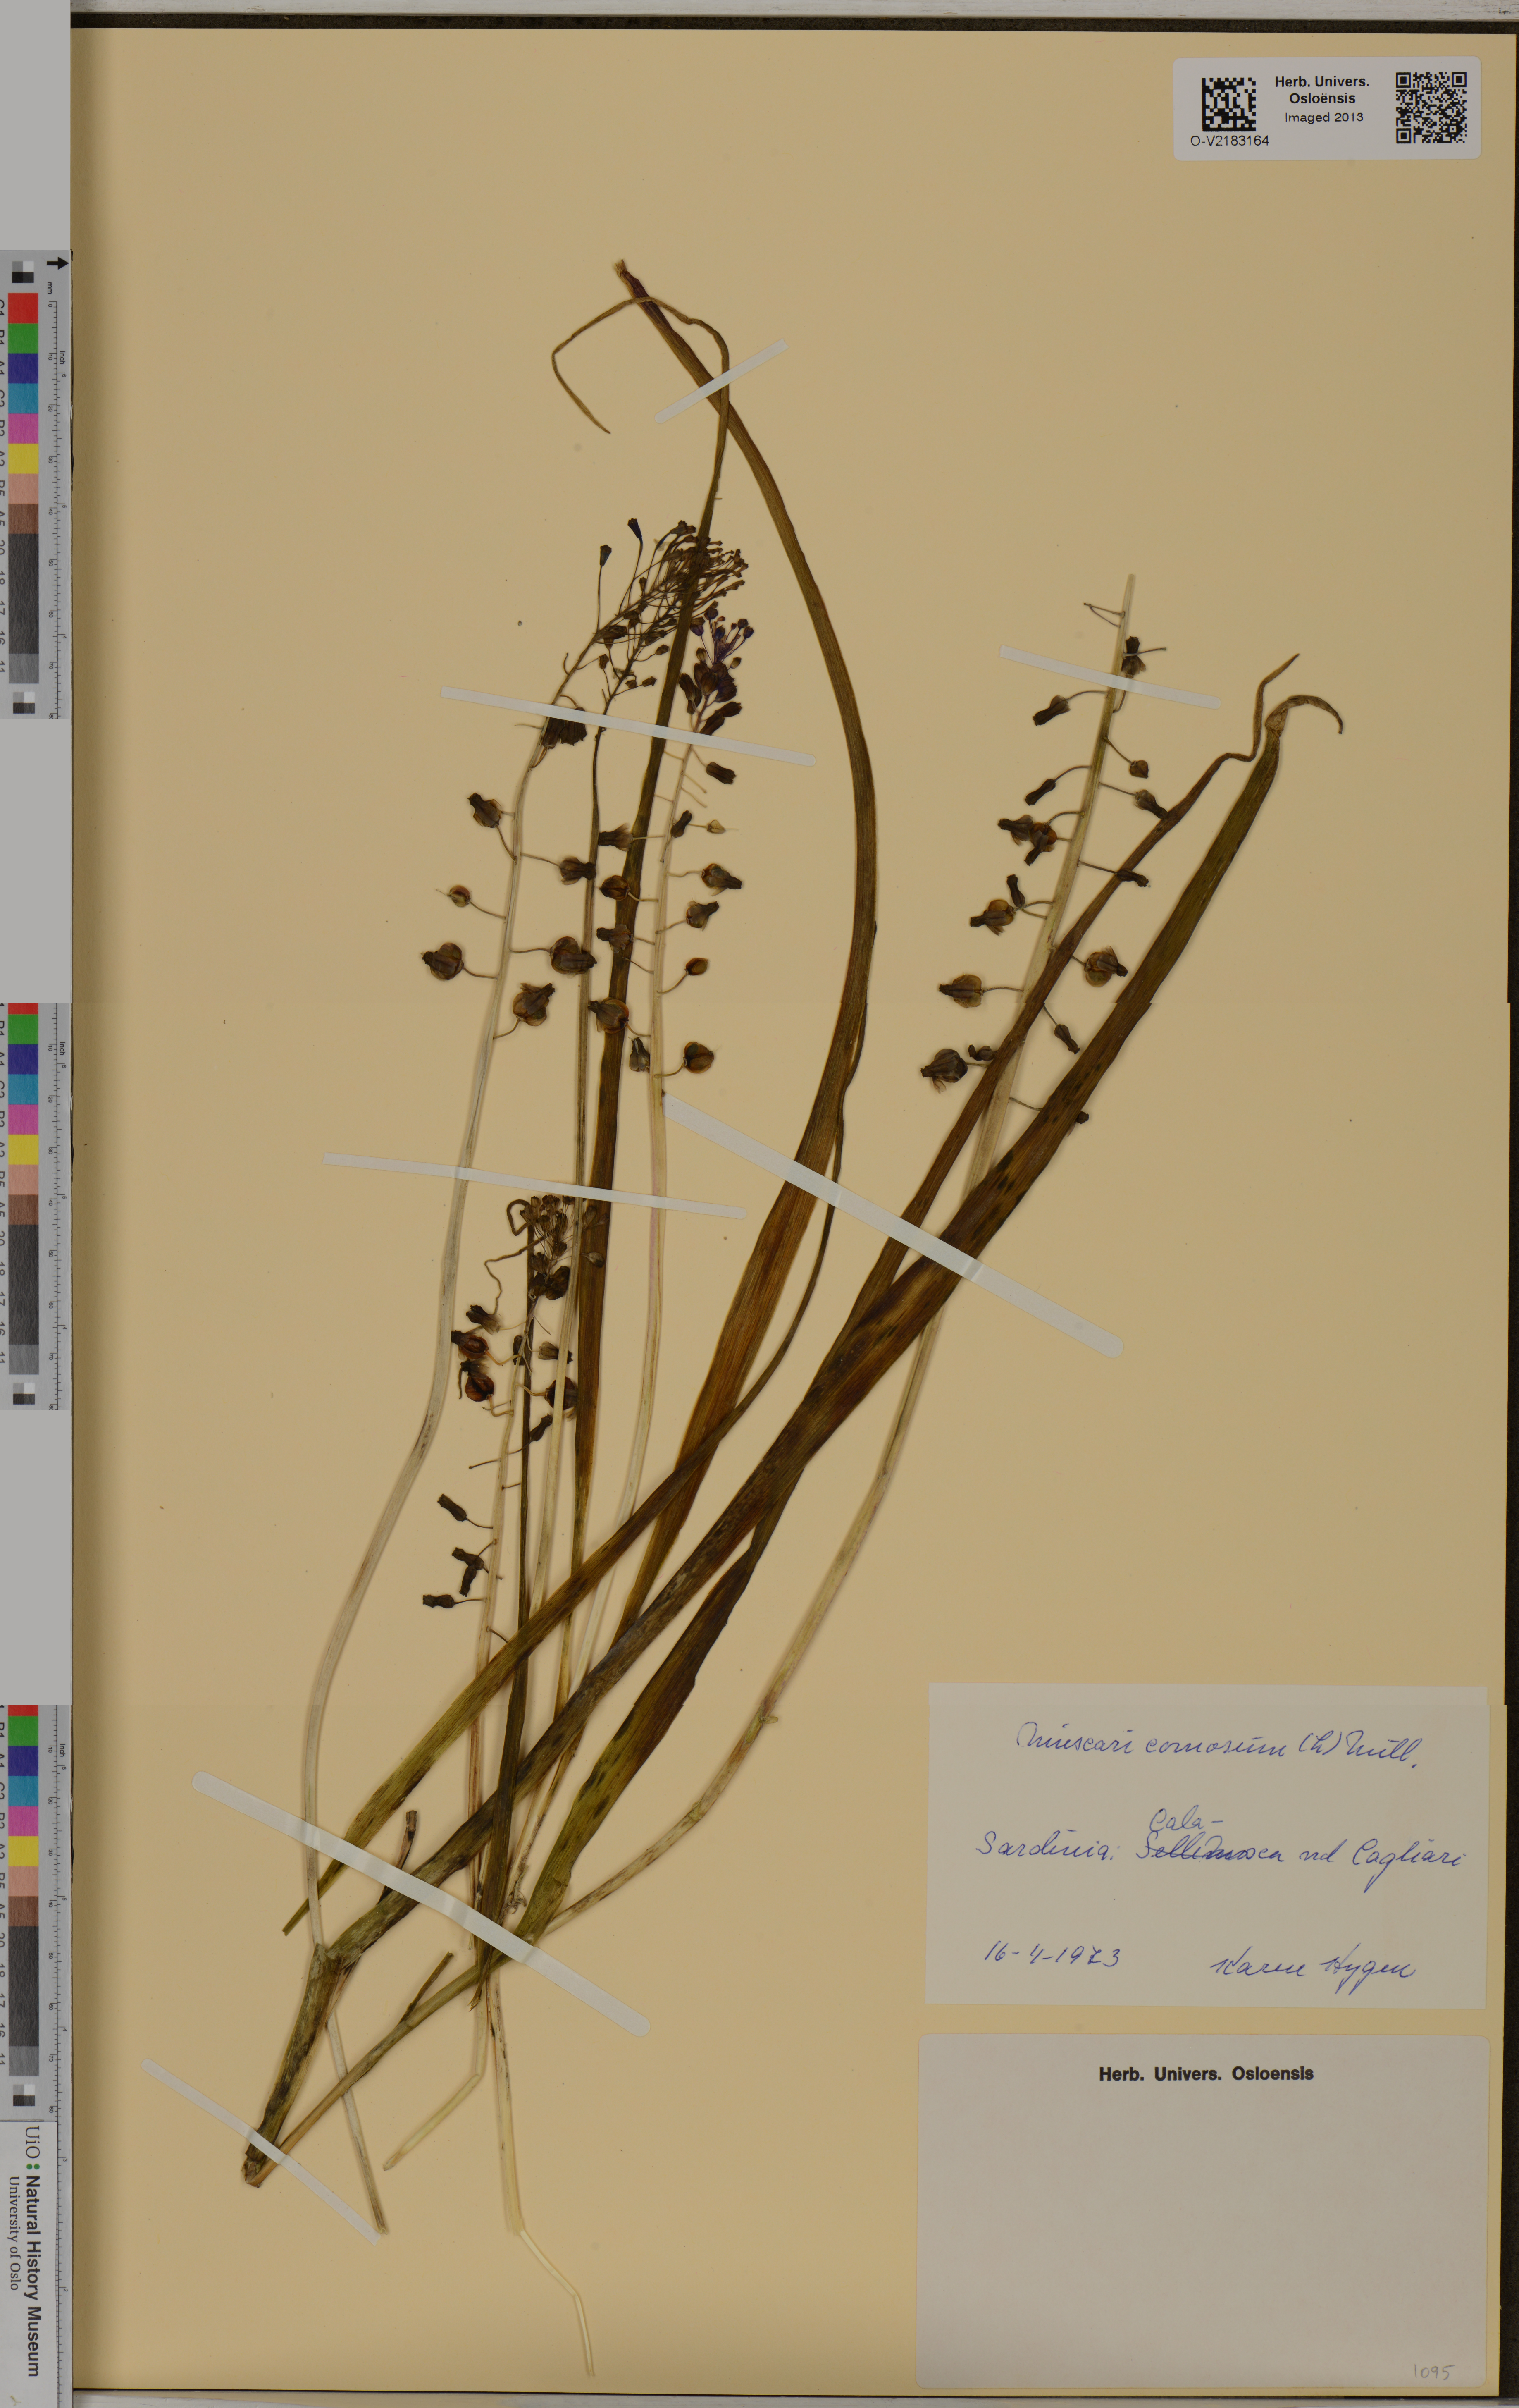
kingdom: Plantae
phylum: Tracheophyta
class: Liliopsida
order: Asparagales
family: Asparagaceae
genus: Muscari
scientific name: Muscari comosum
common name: Tassel hyacinth
